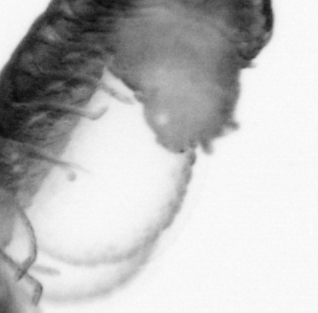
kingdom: Animalia
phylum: Arthropoda
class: Copepoda
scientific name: Copepoda
